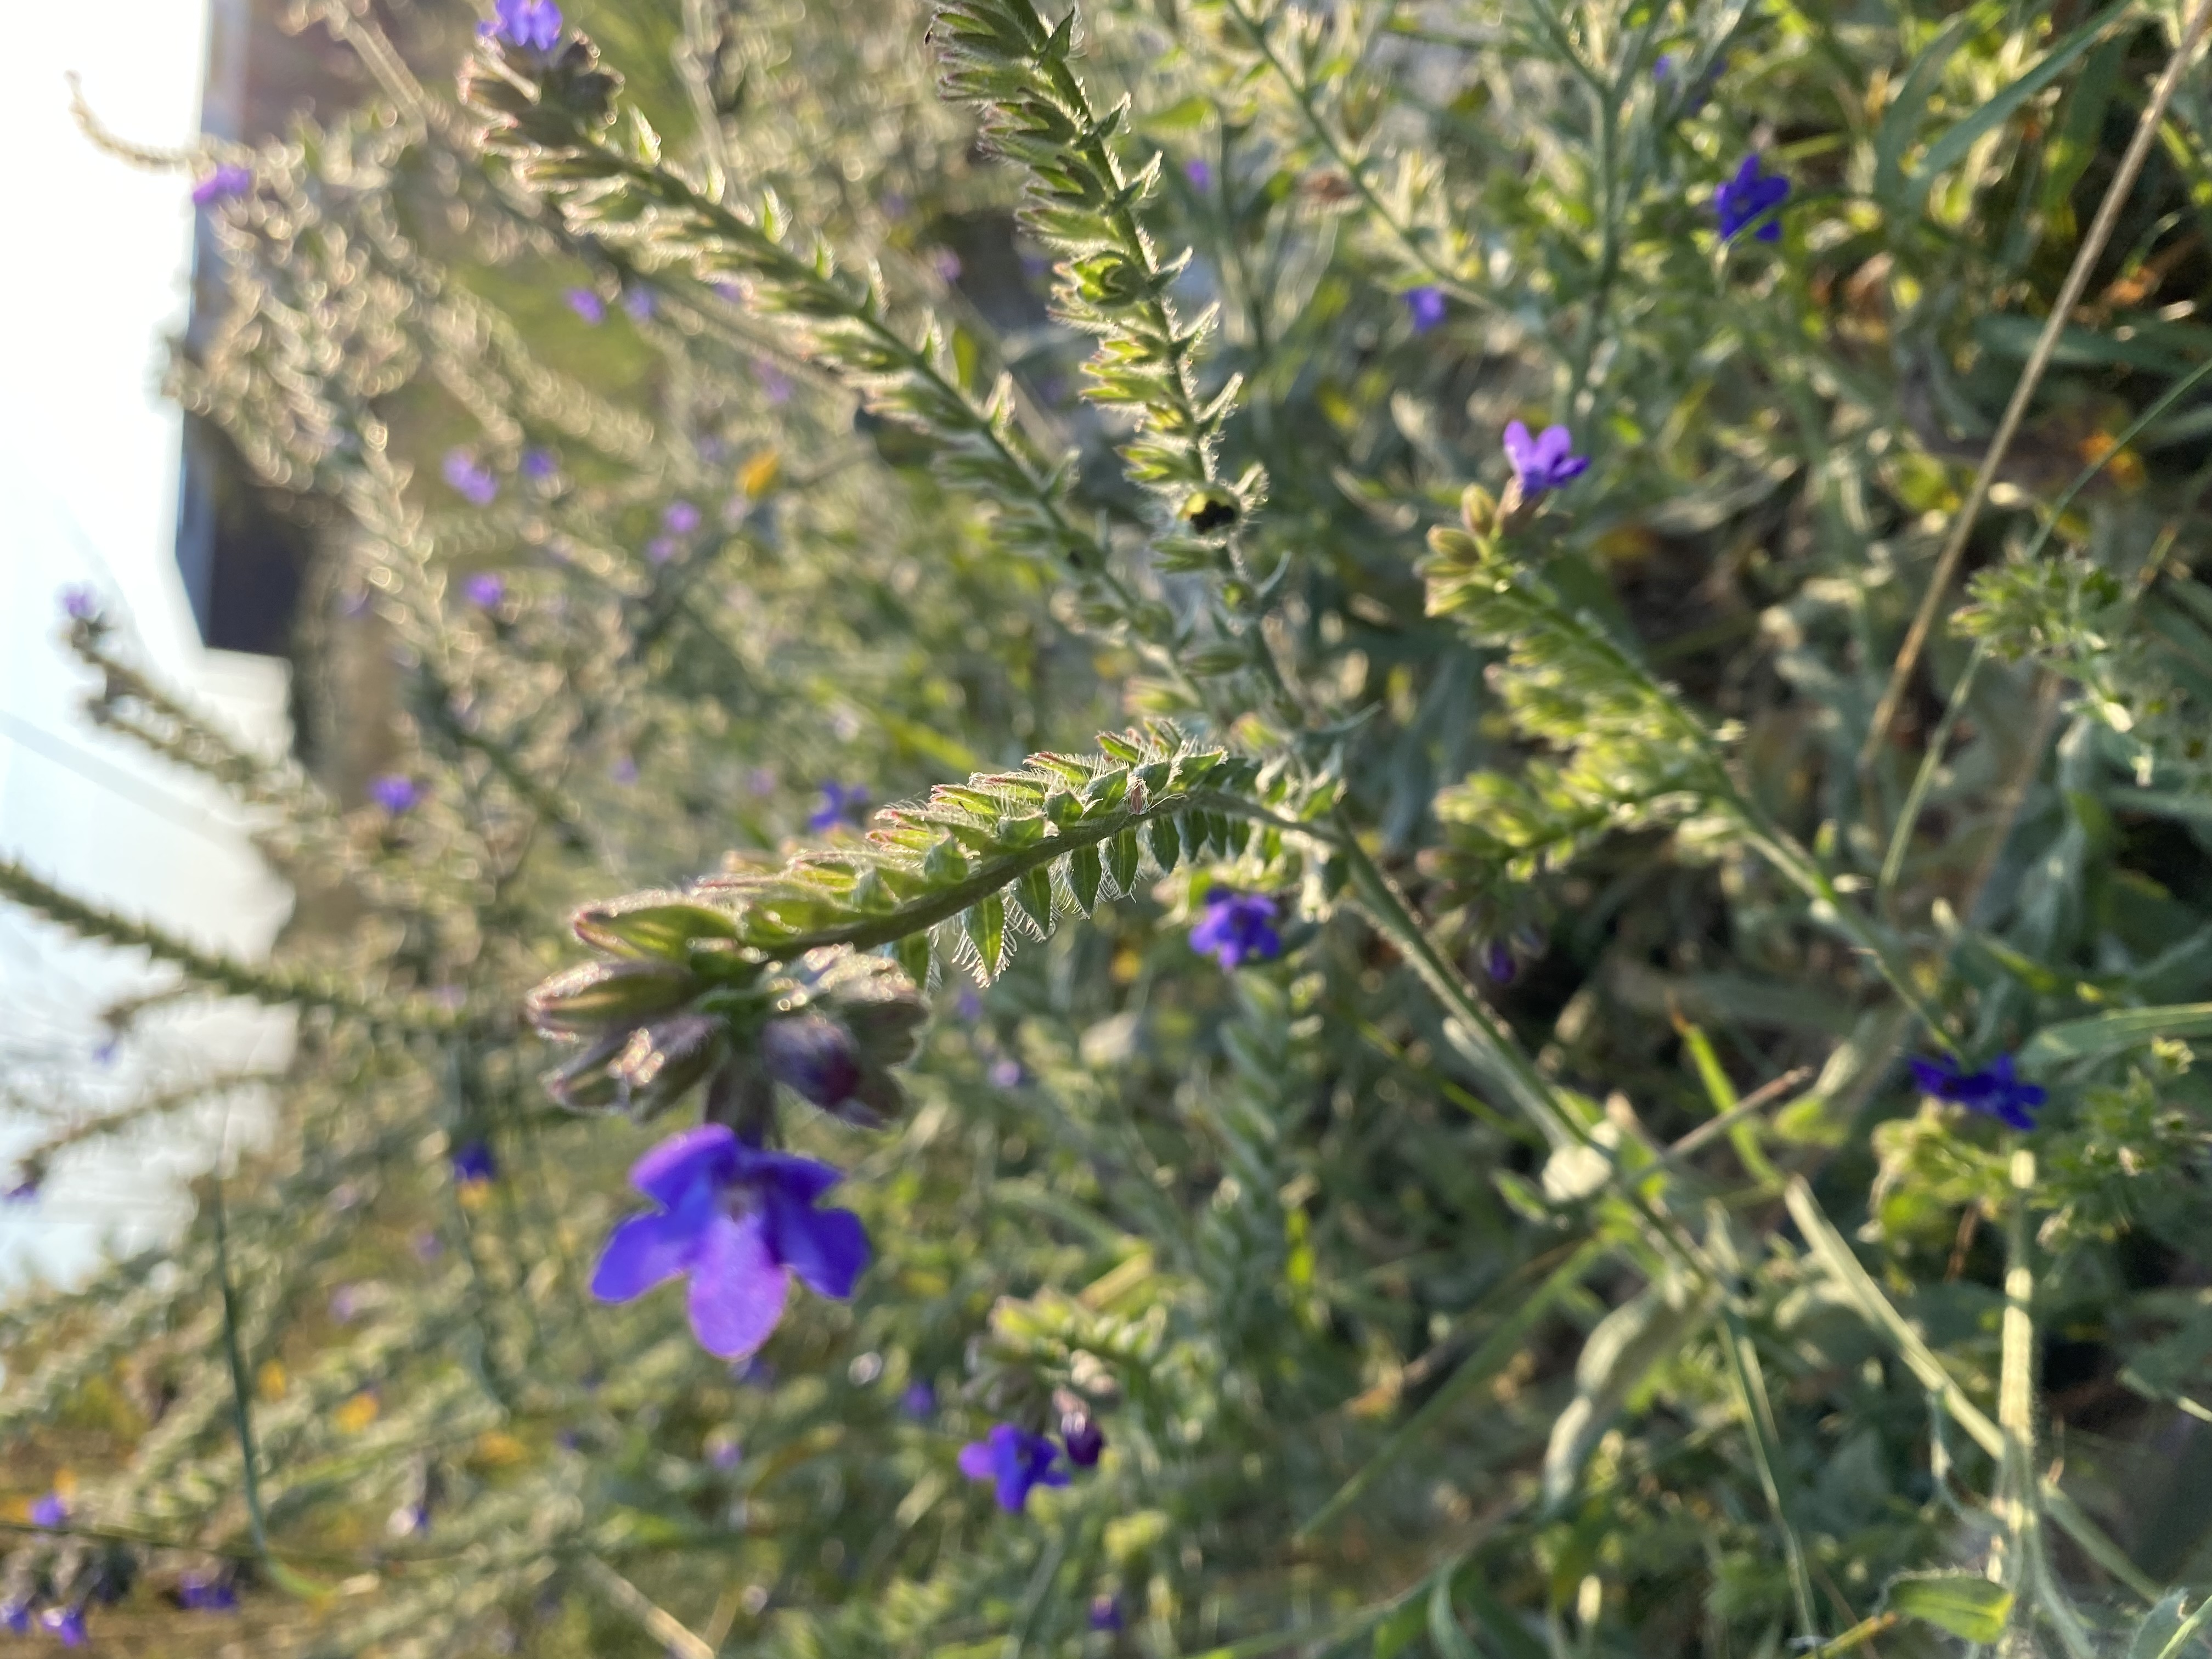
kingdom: Plantae
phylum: Tracheophyta
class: Magnoliopsida
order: Boraginales
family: Boraginaceae
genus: Anchusa
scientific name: Anchusa officinalis
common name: Læge-oksetunge
